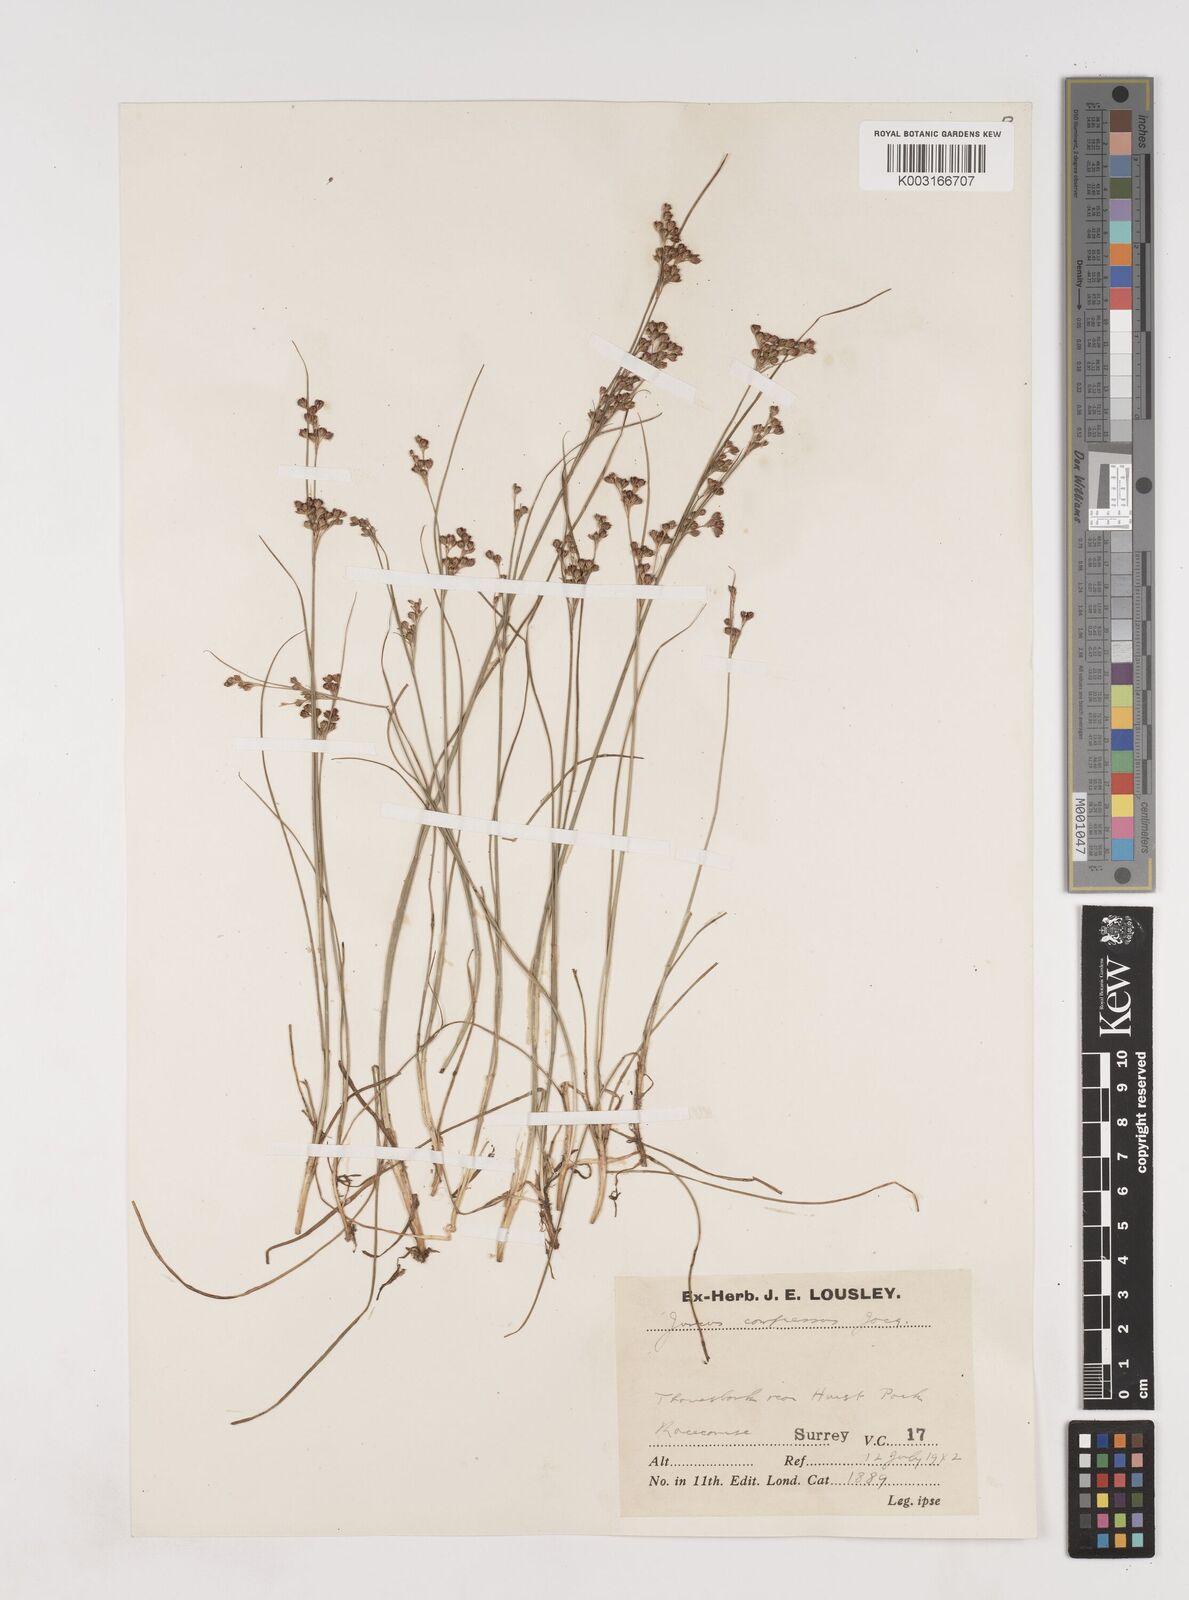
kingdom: Plantae
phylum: Tracheophyta
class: Liliopsida
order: Poales
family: Juncaceae
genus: Juncus
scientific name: Juncus compressus
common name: Round-fruited rush
